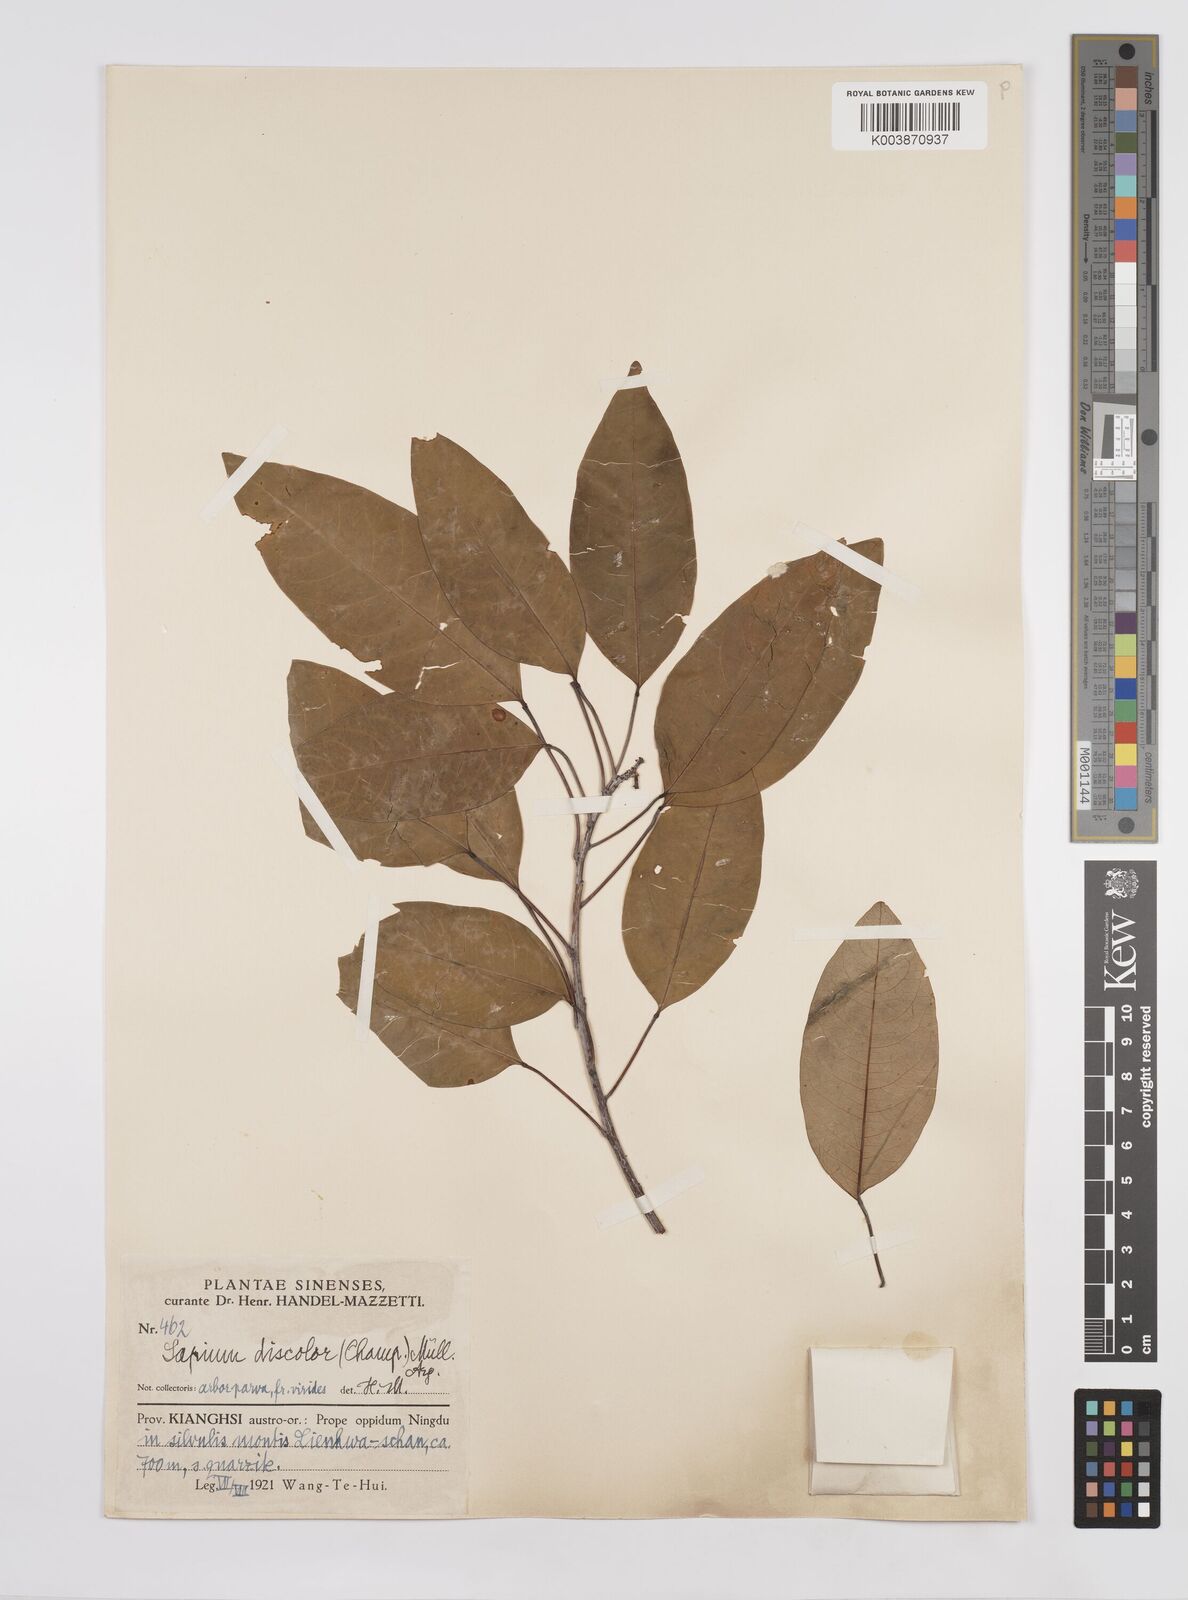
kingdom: Plantae
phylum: Tracheophyta
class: Magnoliopsida
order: Malpighiales
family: Euphorbiaceae
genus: Triadica
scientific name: Triadica cochinchinensis
